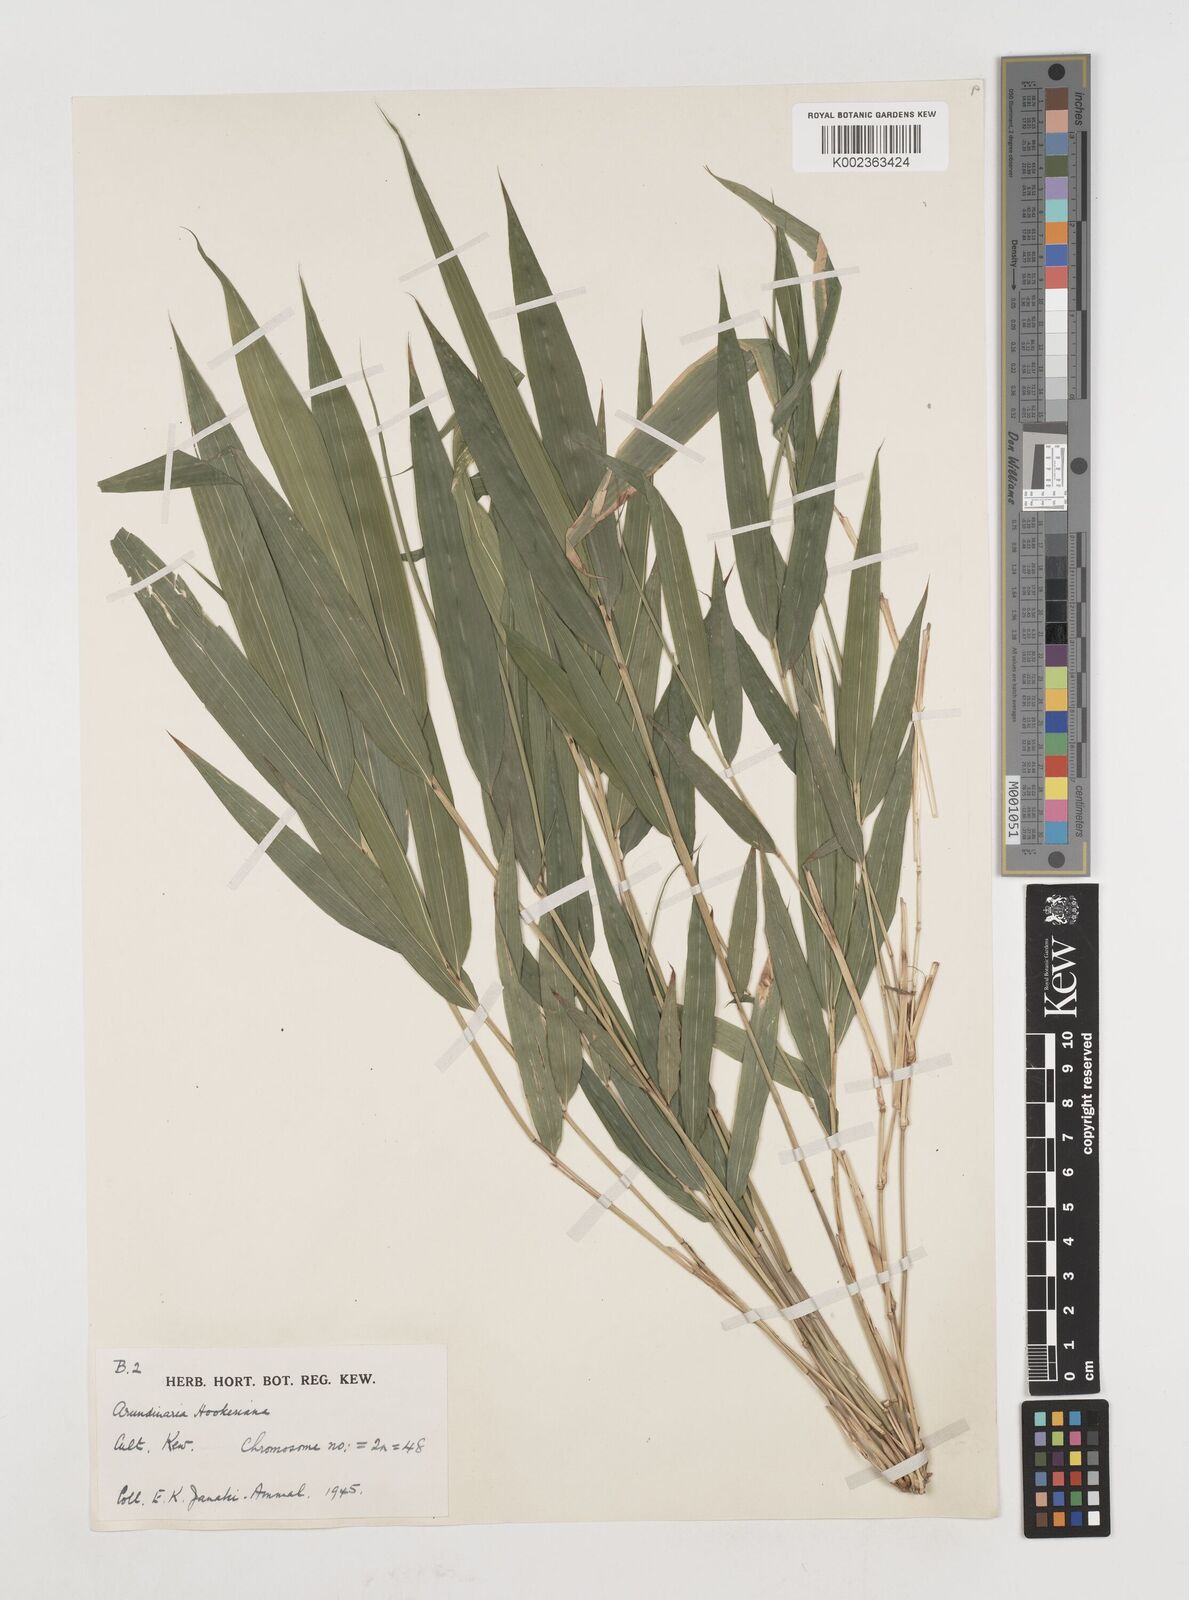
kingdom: Plantae
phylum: Tracheophyta
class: Liliopsida
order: Poales
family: Poaceae
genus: Himalayacalamus
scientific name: Himalayacalamus hookerianus
